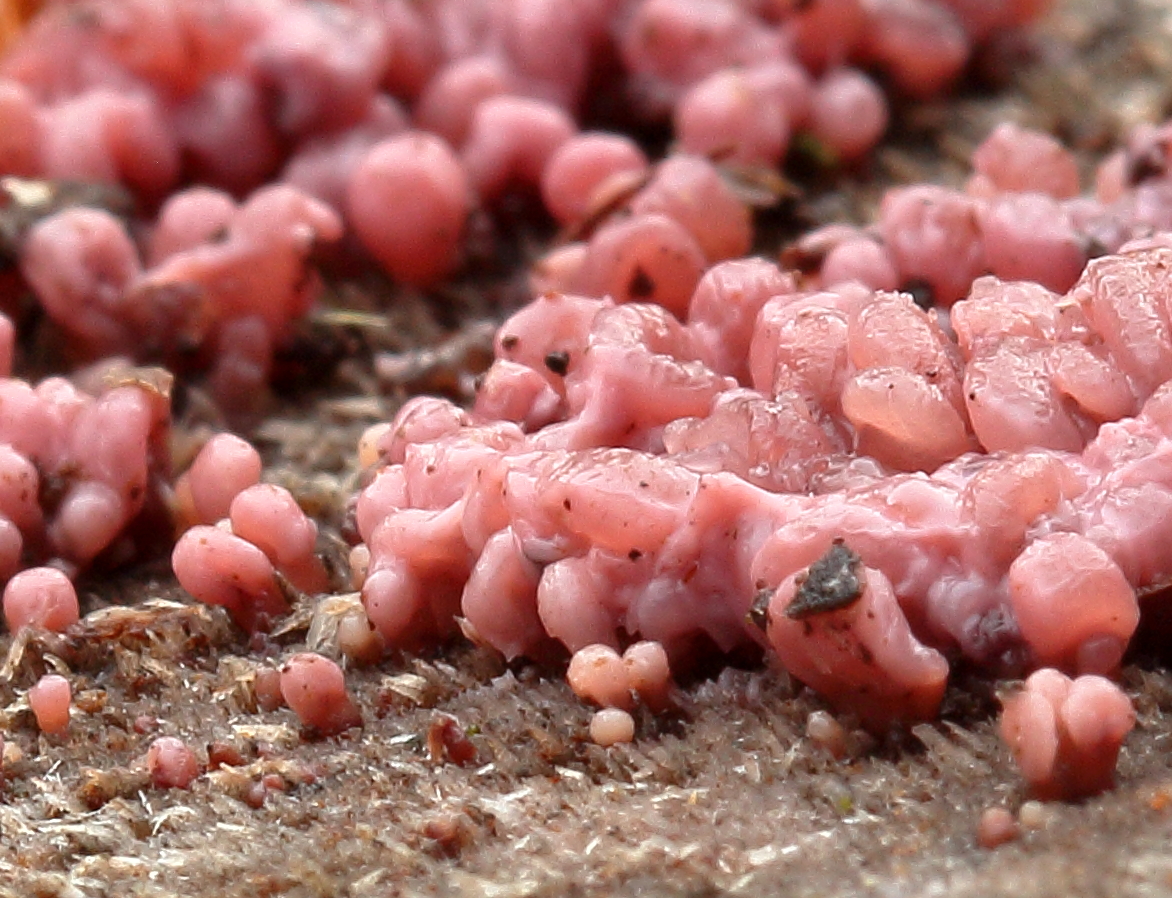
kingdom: Protozoa
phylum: Amoebozoa
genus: Arcyria
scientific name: Arcyria
